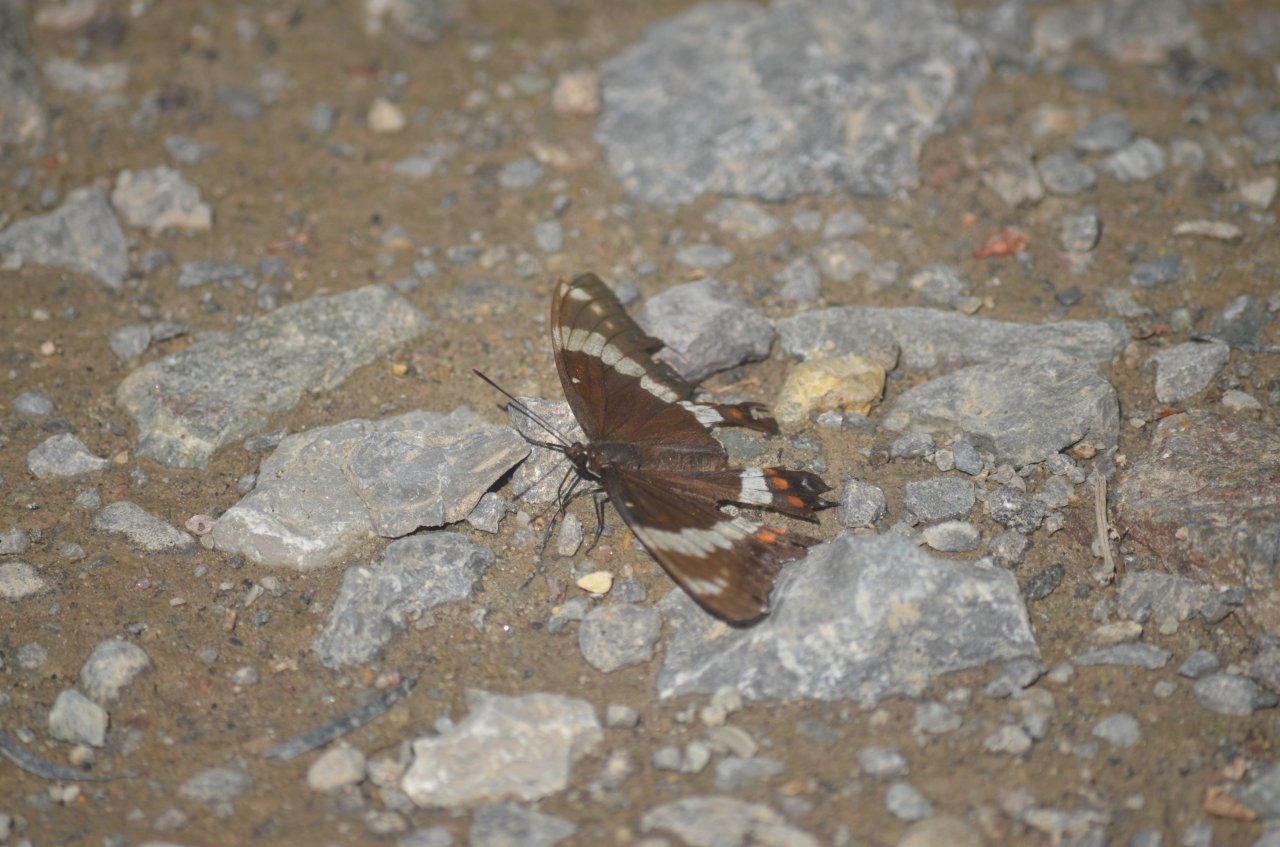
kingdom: Animalia
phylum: Arthropoda
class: Insecta
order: Lepidoptera
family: Nymphalidae
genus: Limenitis
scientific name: Limenitis arthemis
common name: Red-spotted Admiral
